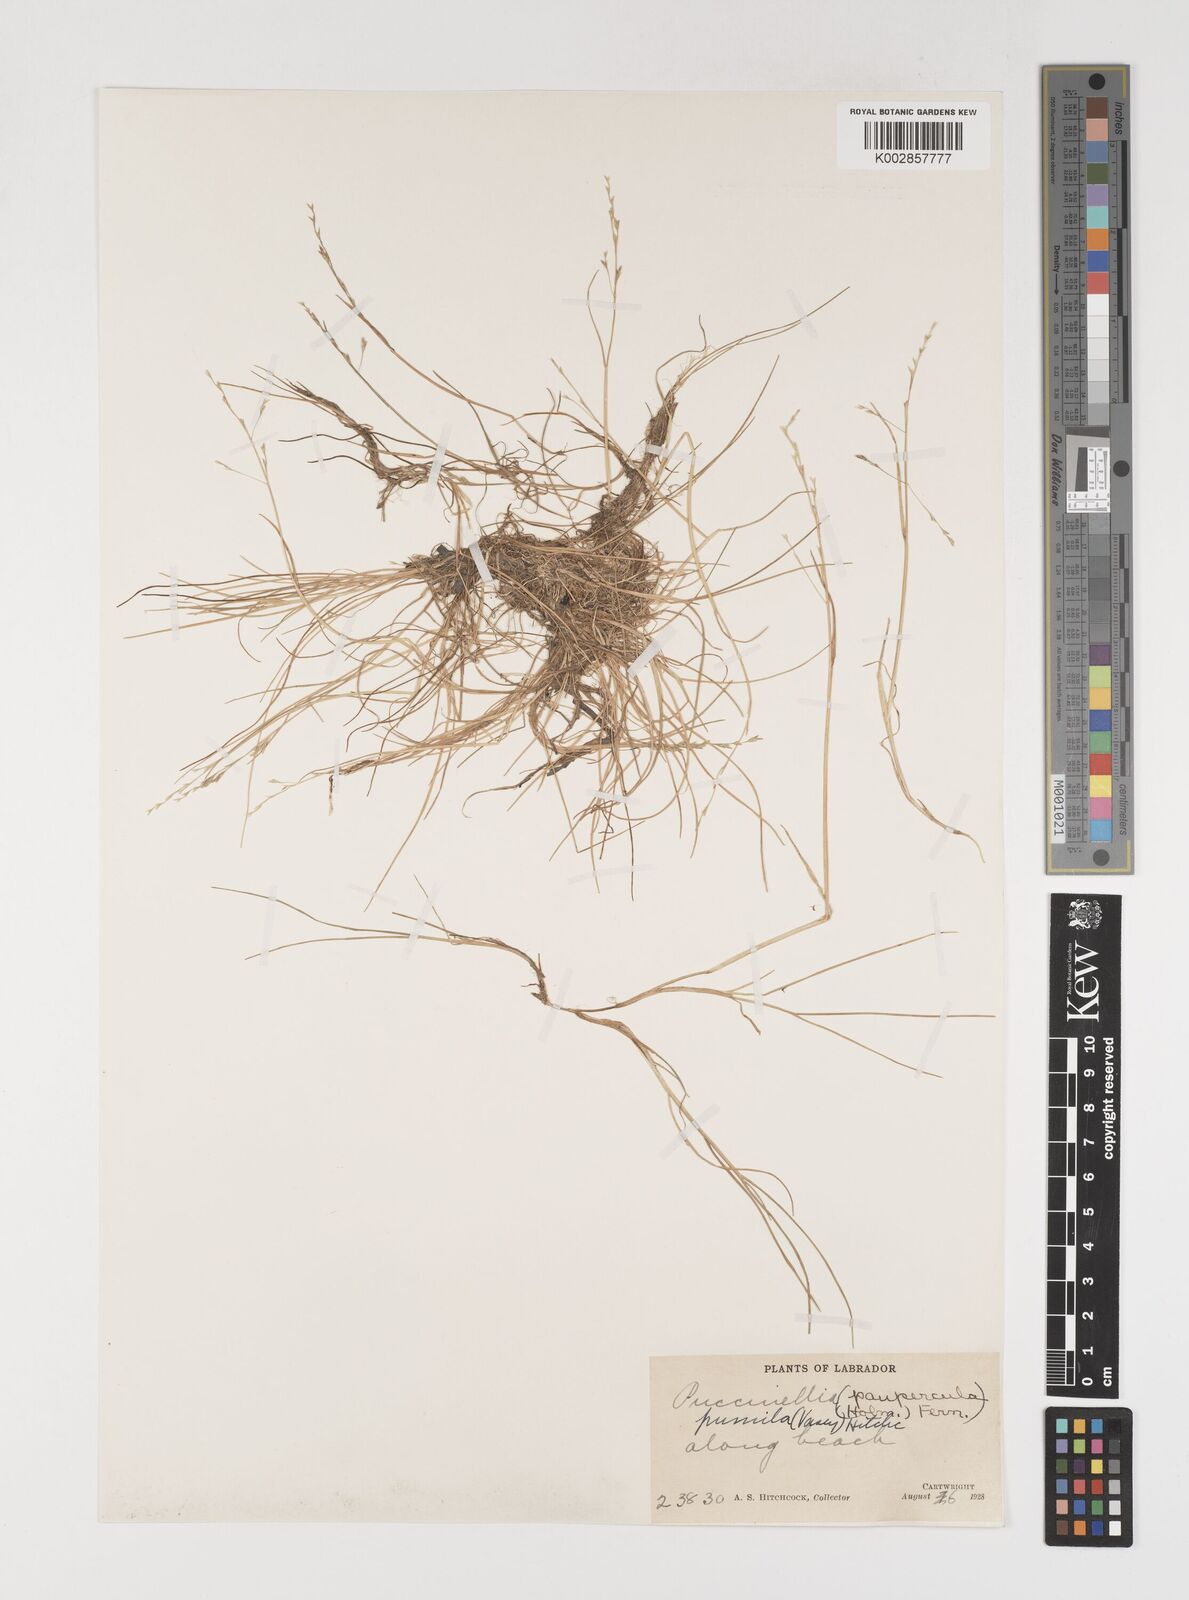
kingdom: Plantae
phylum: Tracheophyta
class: Liliopsida
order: Poales
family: Poaceae
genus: Puccinellia
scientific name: Puccinellia pumila
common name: Dwarf alkaligrass
